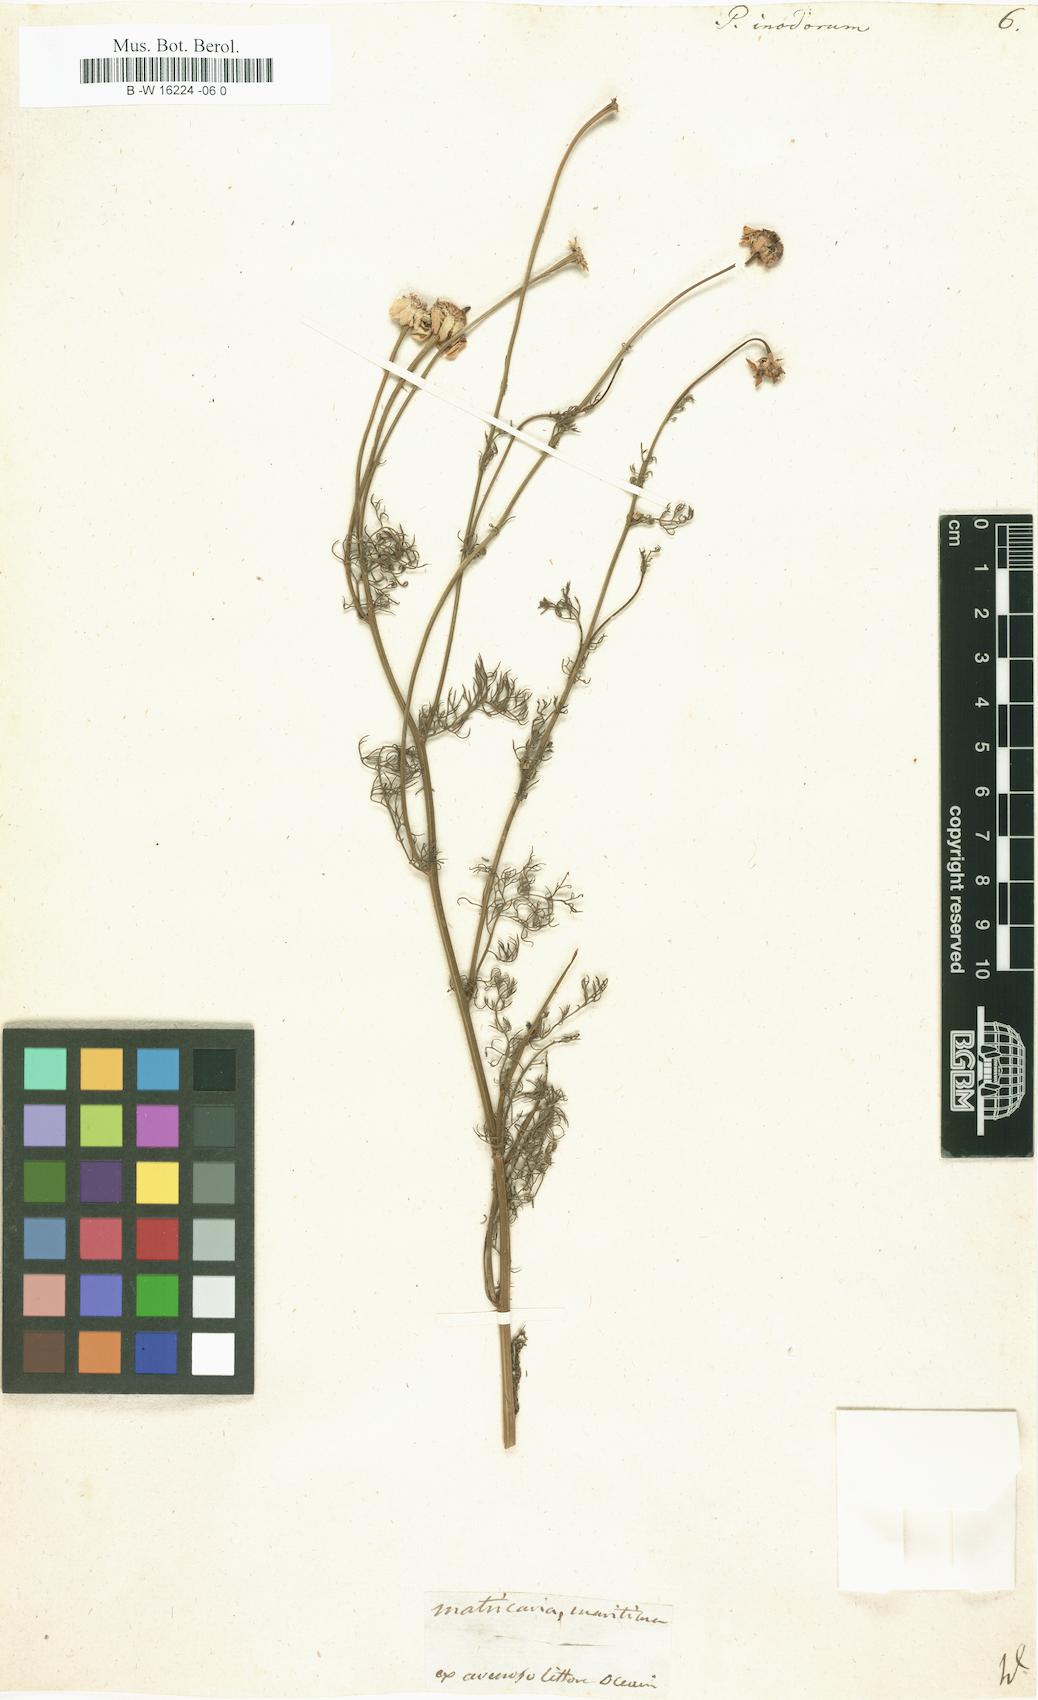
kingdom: Plantae
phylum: Tracheophyta
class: Magnoliopsida
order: Asterales
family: Asteraceae
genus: Tripleurospermum
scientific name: Tripleurospermum inodorum
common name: Scentless mayweed
